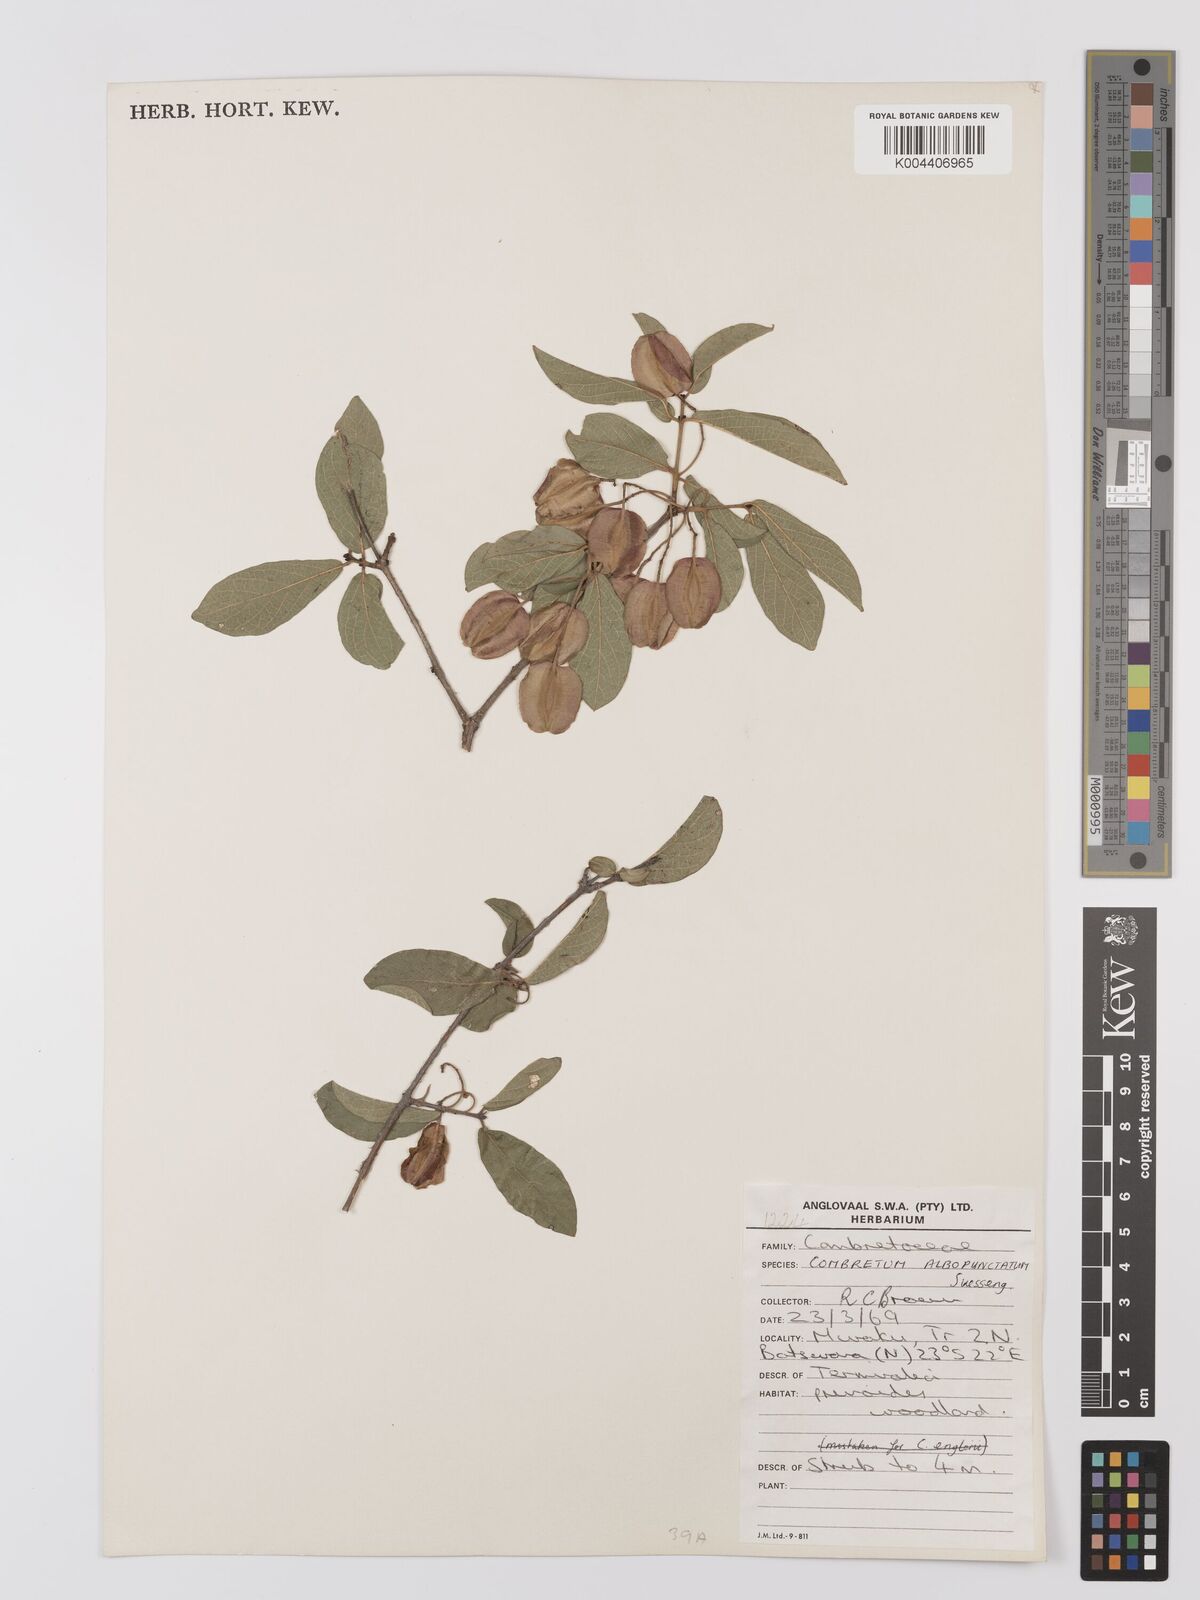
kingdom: Plantae
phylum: Tracheophyta
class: Magnoliopsida
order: Myrtales
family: Combretaceae
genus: Combretum
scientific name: Combretum albopunctatum
